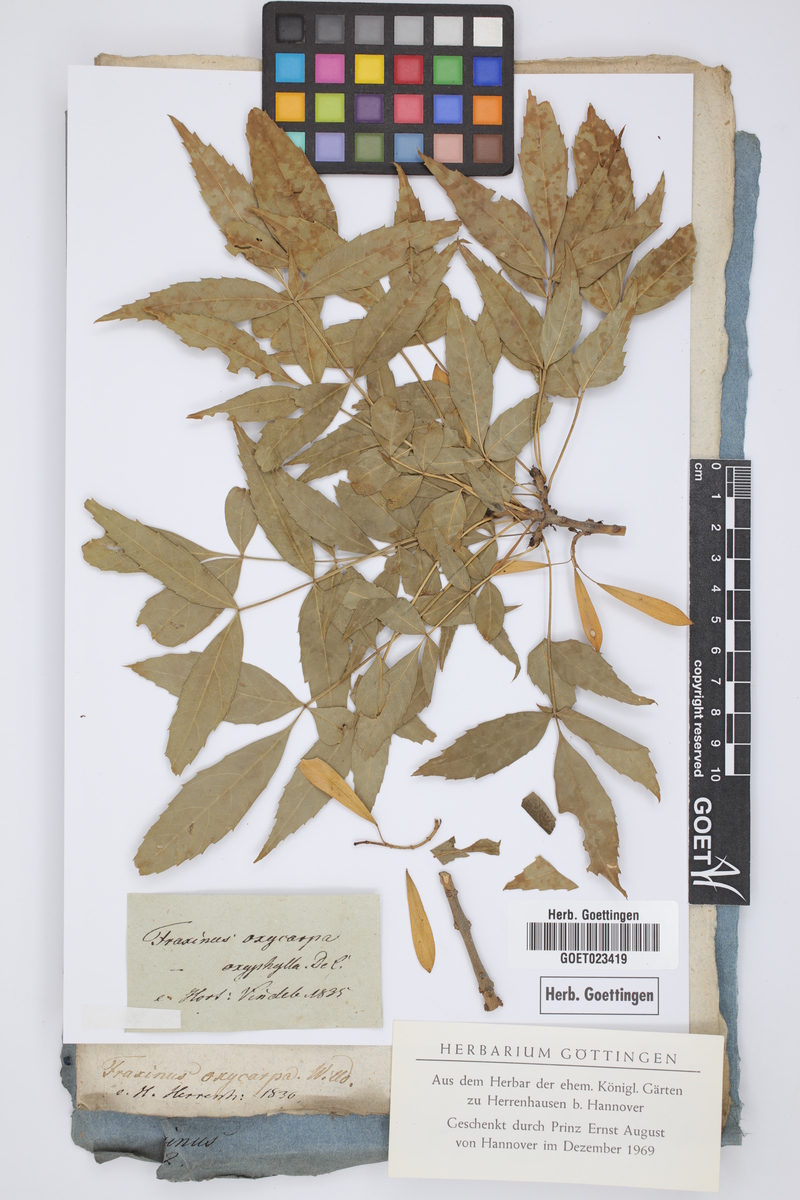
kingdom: Plantae
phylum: Tracheophyta
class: Magnoliopsida
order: Lamiales
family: Oleaceae
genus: Fraxinus
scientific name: Fraxinus angustifolia
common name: Narrow-leafed ash
